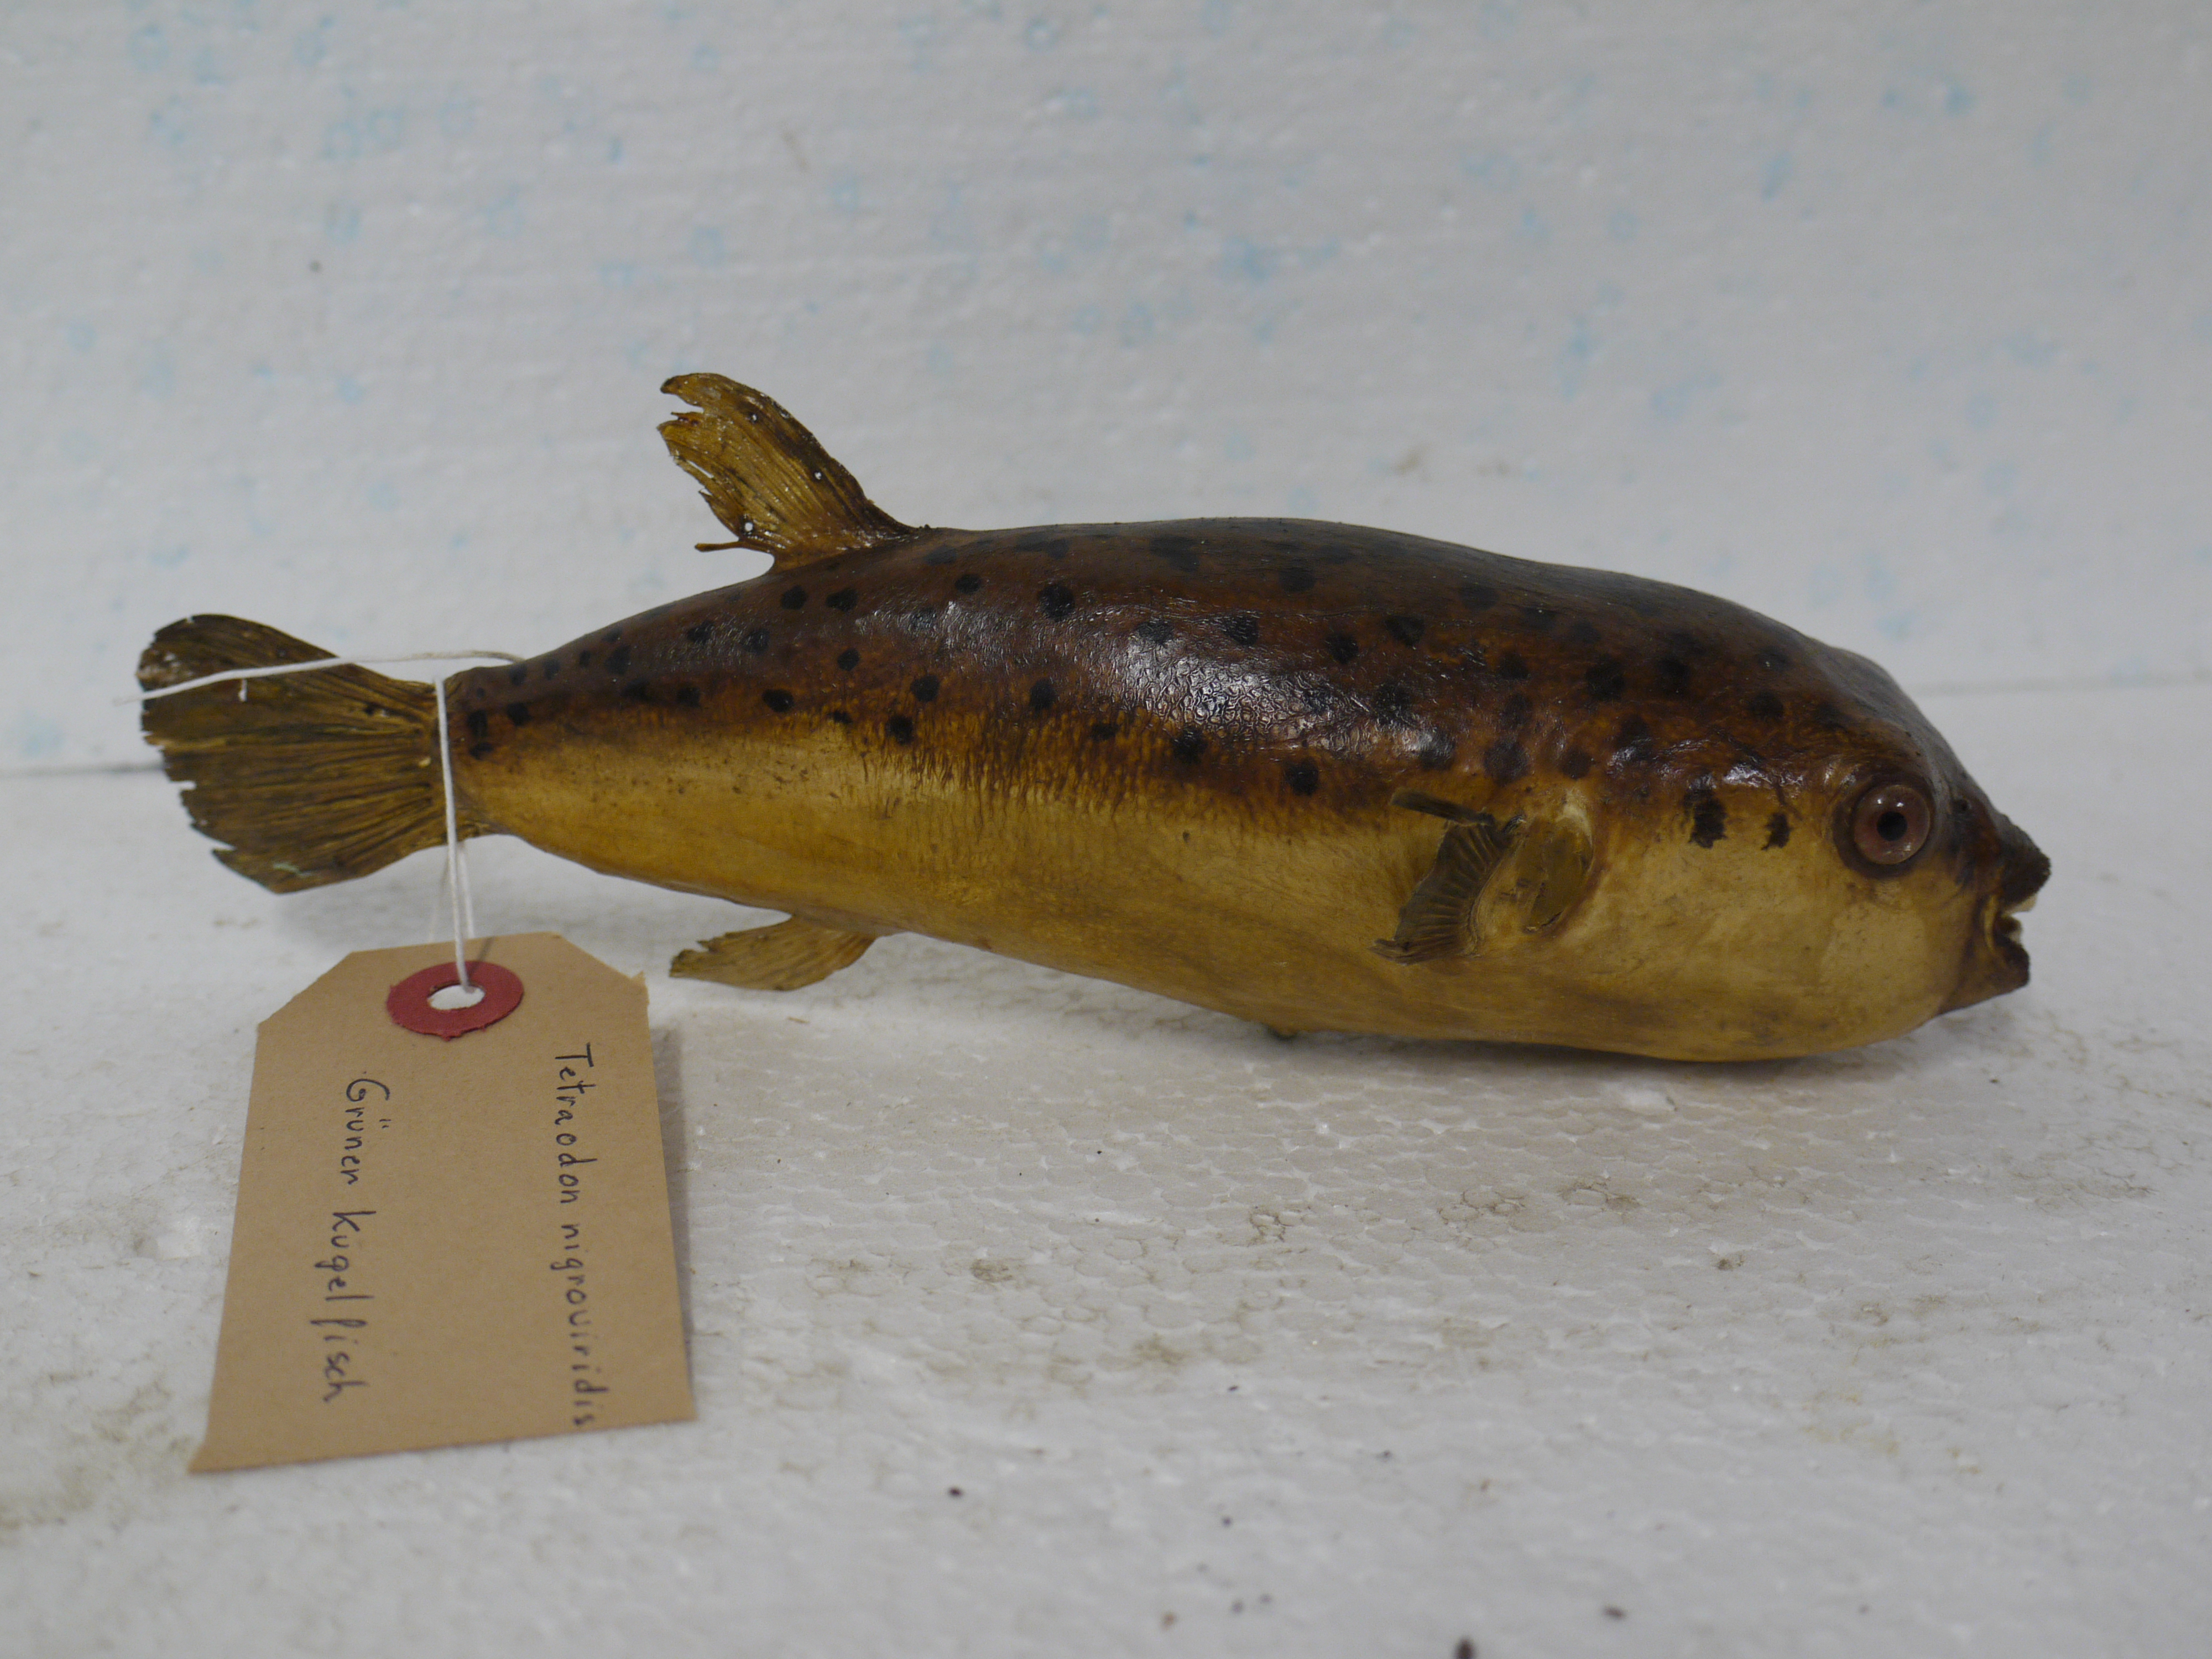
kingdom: Animalia
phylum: Chordata
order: Tetraodontiformes
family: Tetraodontidae
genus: Dichotomyctere
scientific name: Dichotomyctere nigroviridis
